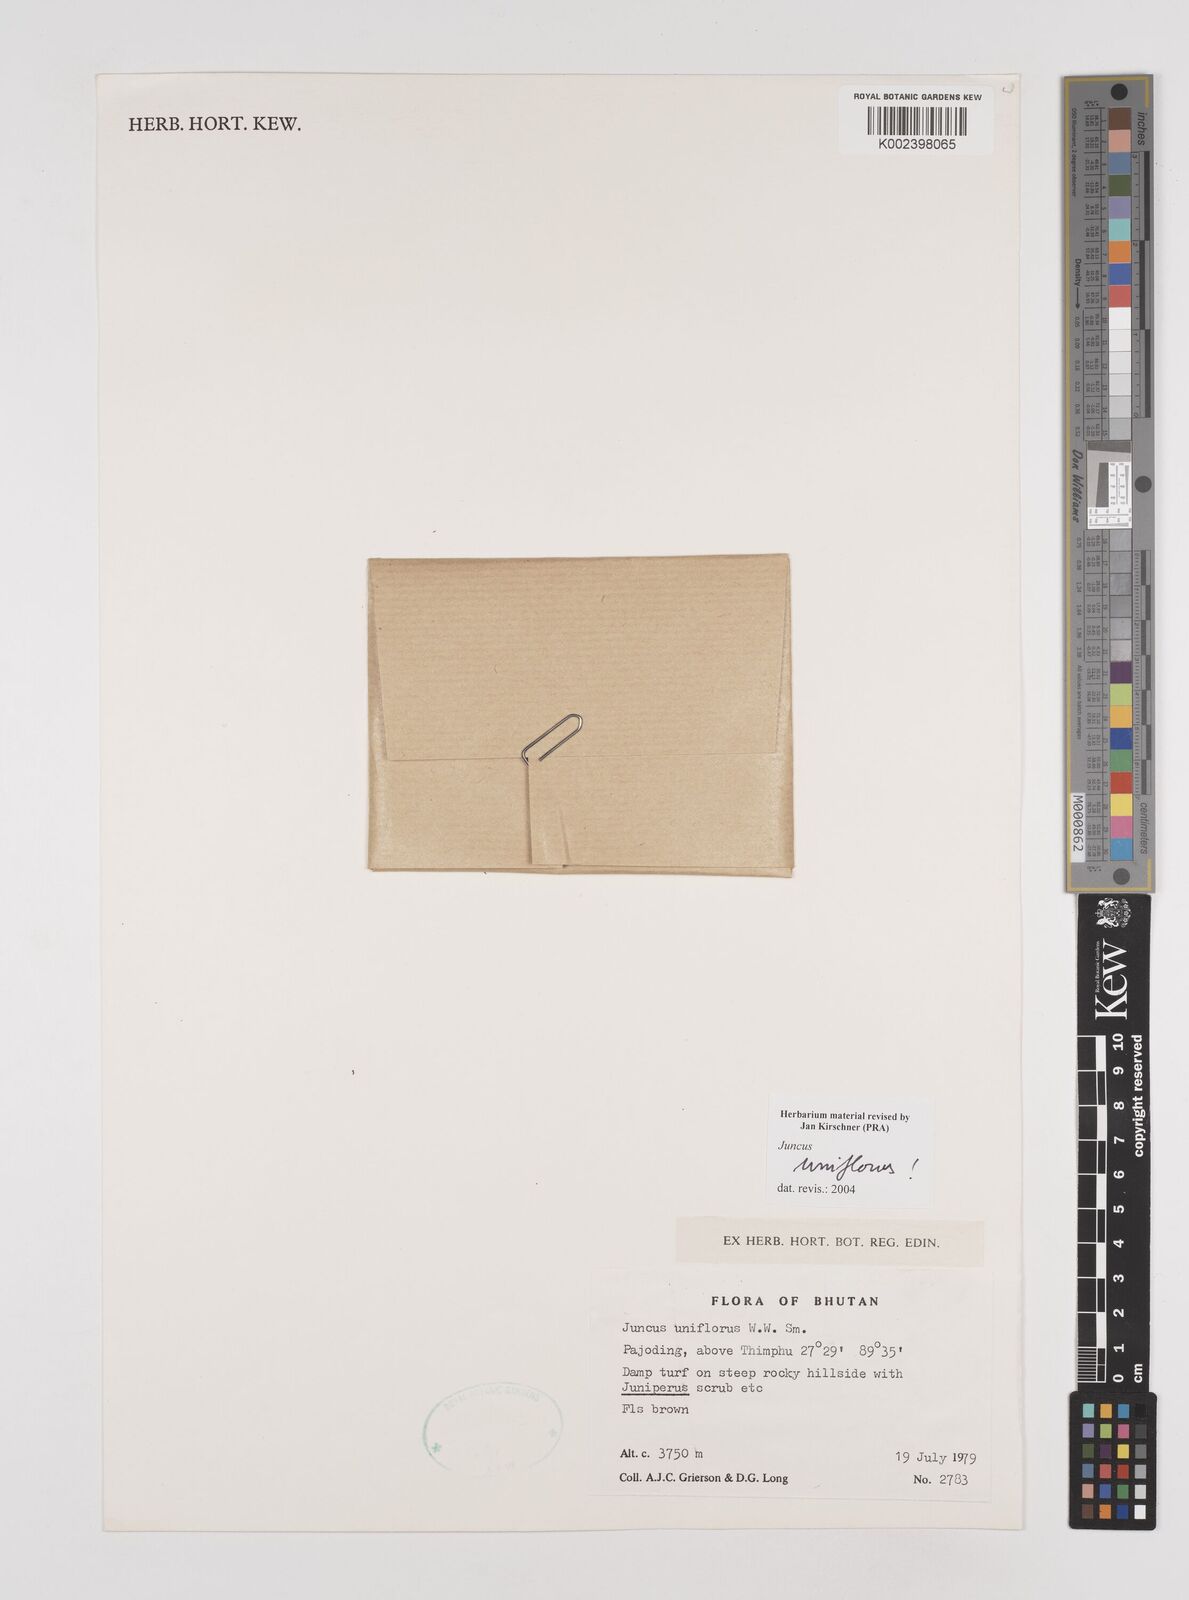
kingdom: Plantae
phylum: Tracheophyta
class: Liliopsida
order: Poales
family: Juncaceae
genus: Juncus
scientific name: Juncus uniflorus
